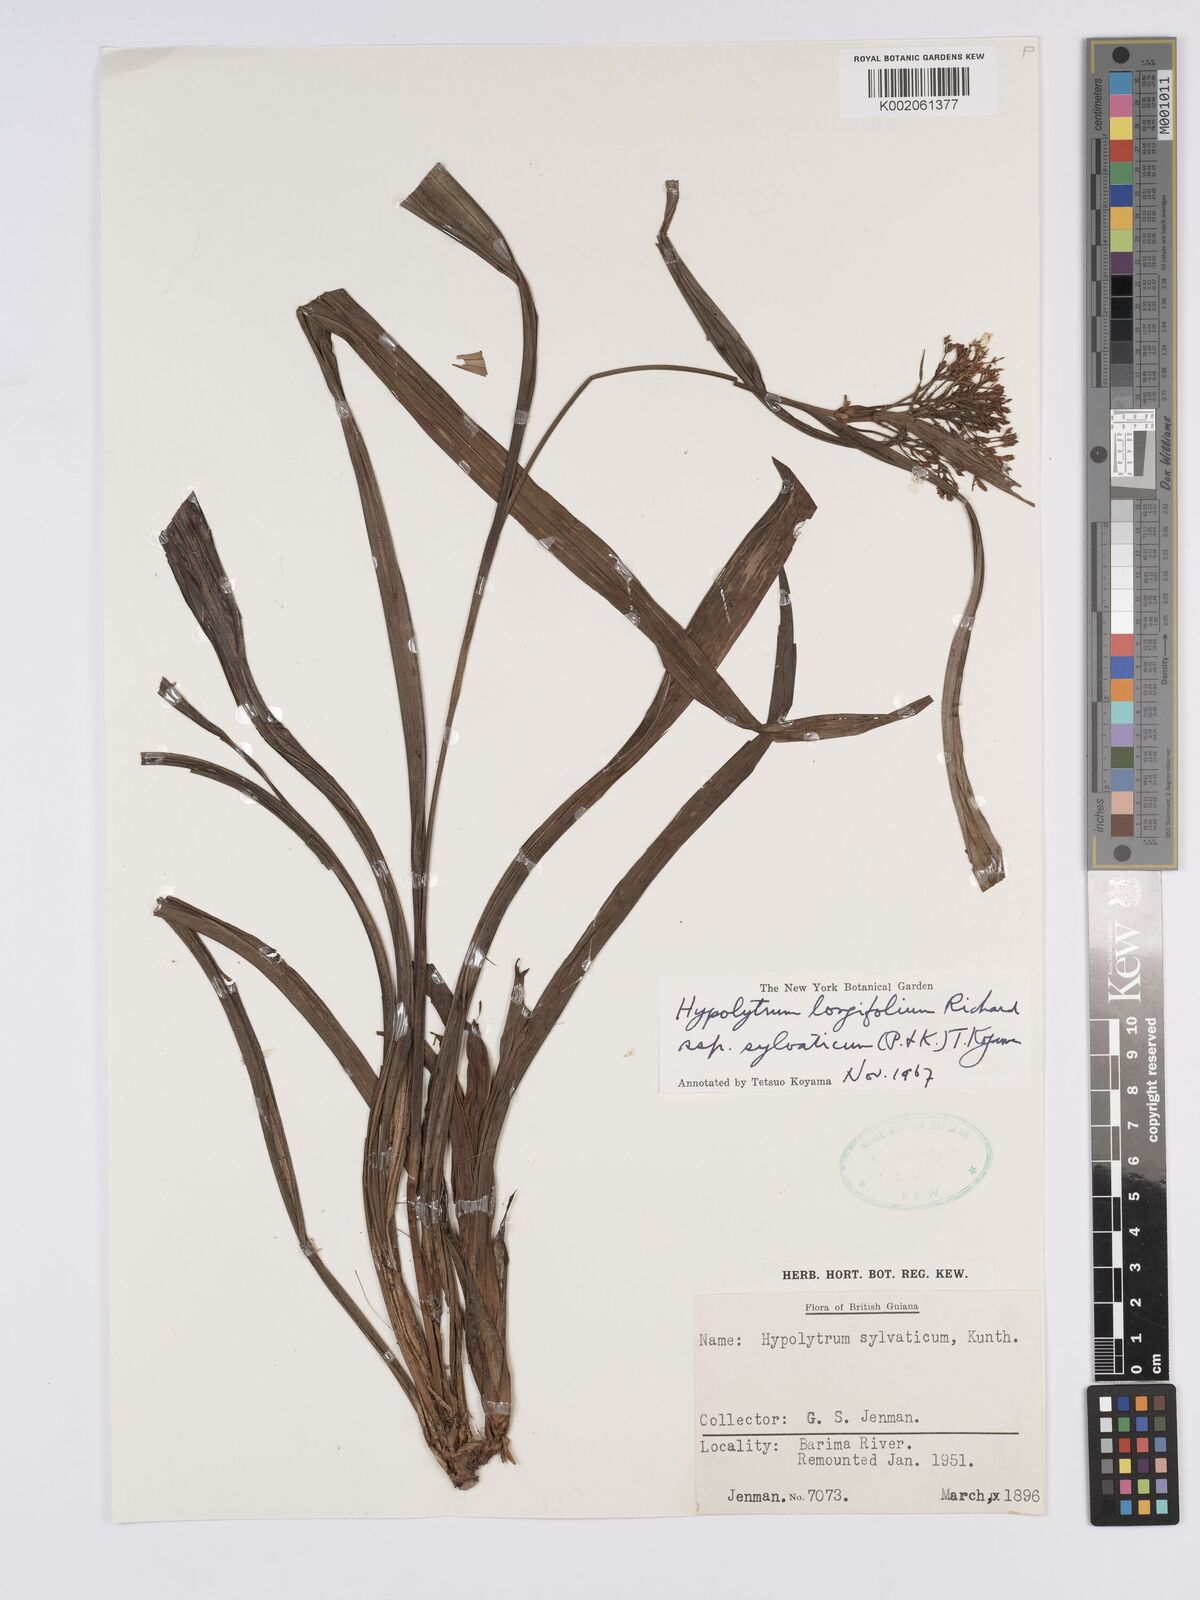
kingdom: Plantae
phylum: Tracheophyta
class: Liliopsida
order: Poales
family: Cyperaceae
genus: Hypolytrum
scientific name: Hypolytrum longifolium
